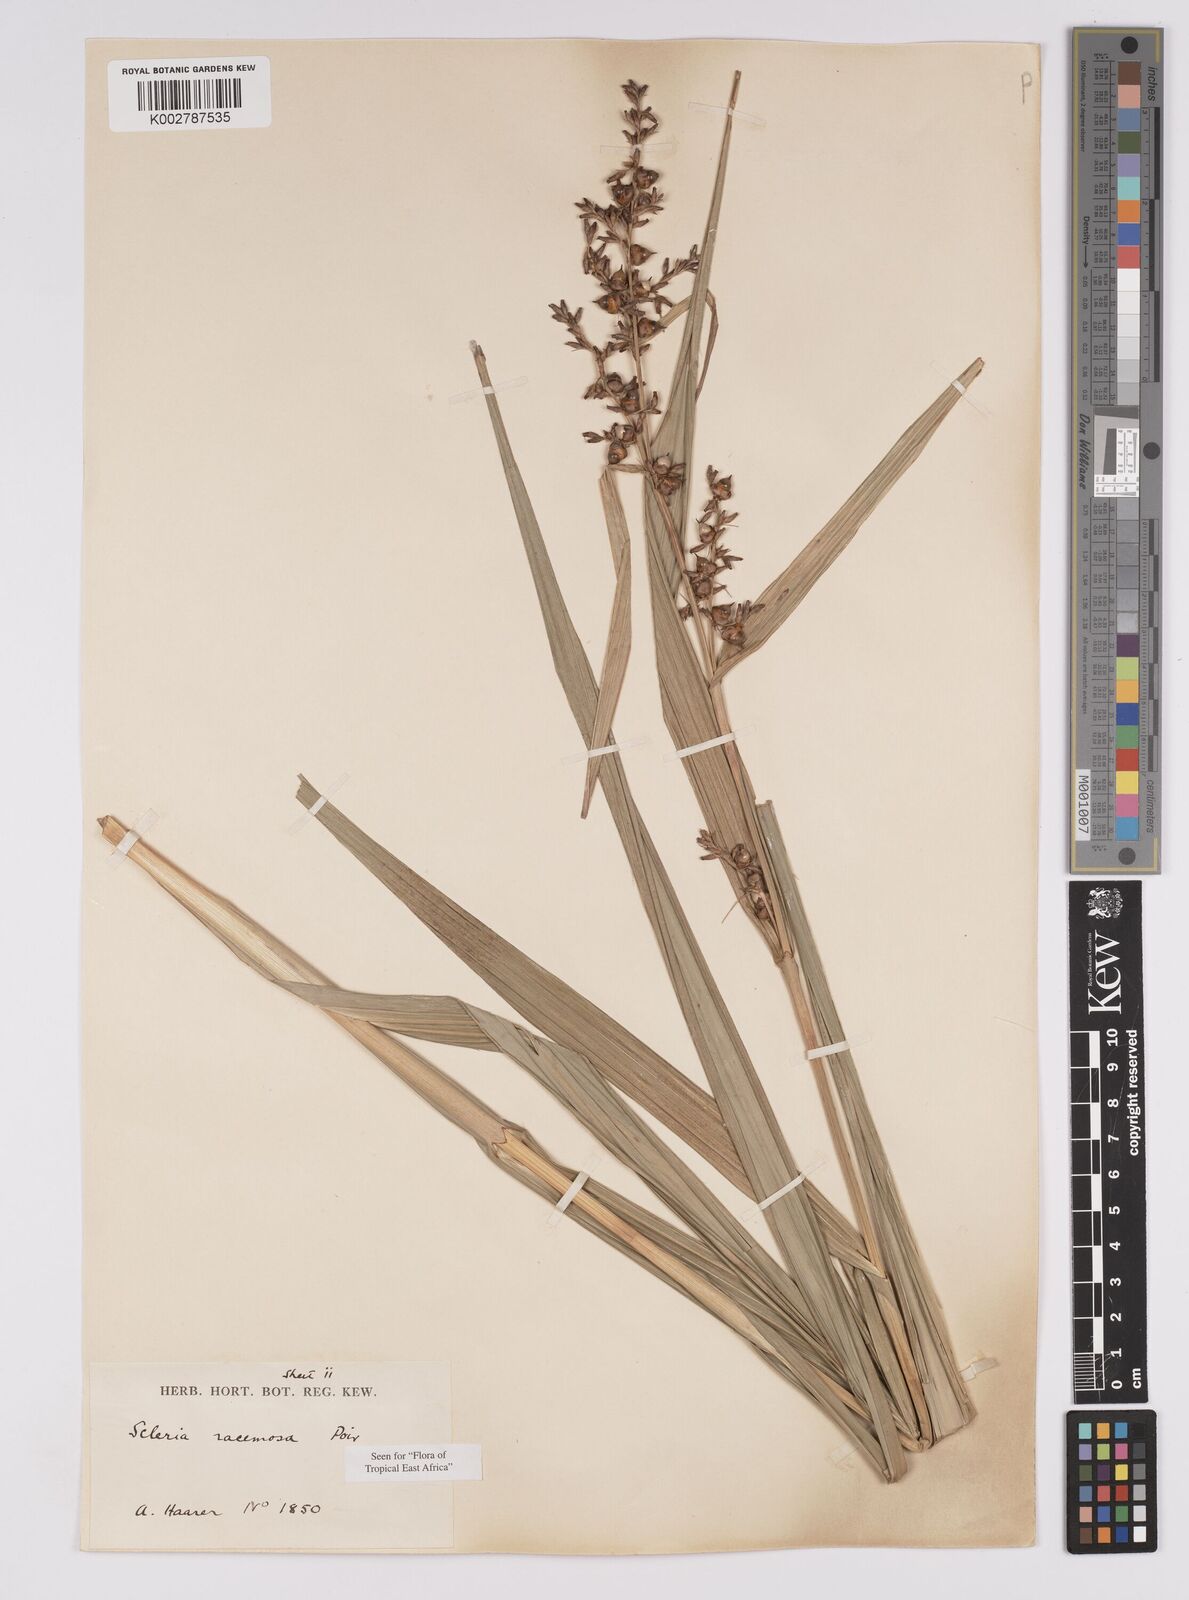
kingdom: Plantae
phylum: Tracheophyta
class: Liliopsida
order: Poales
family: Cyperaceae
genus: Scleria
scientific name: Scleria racemosa
